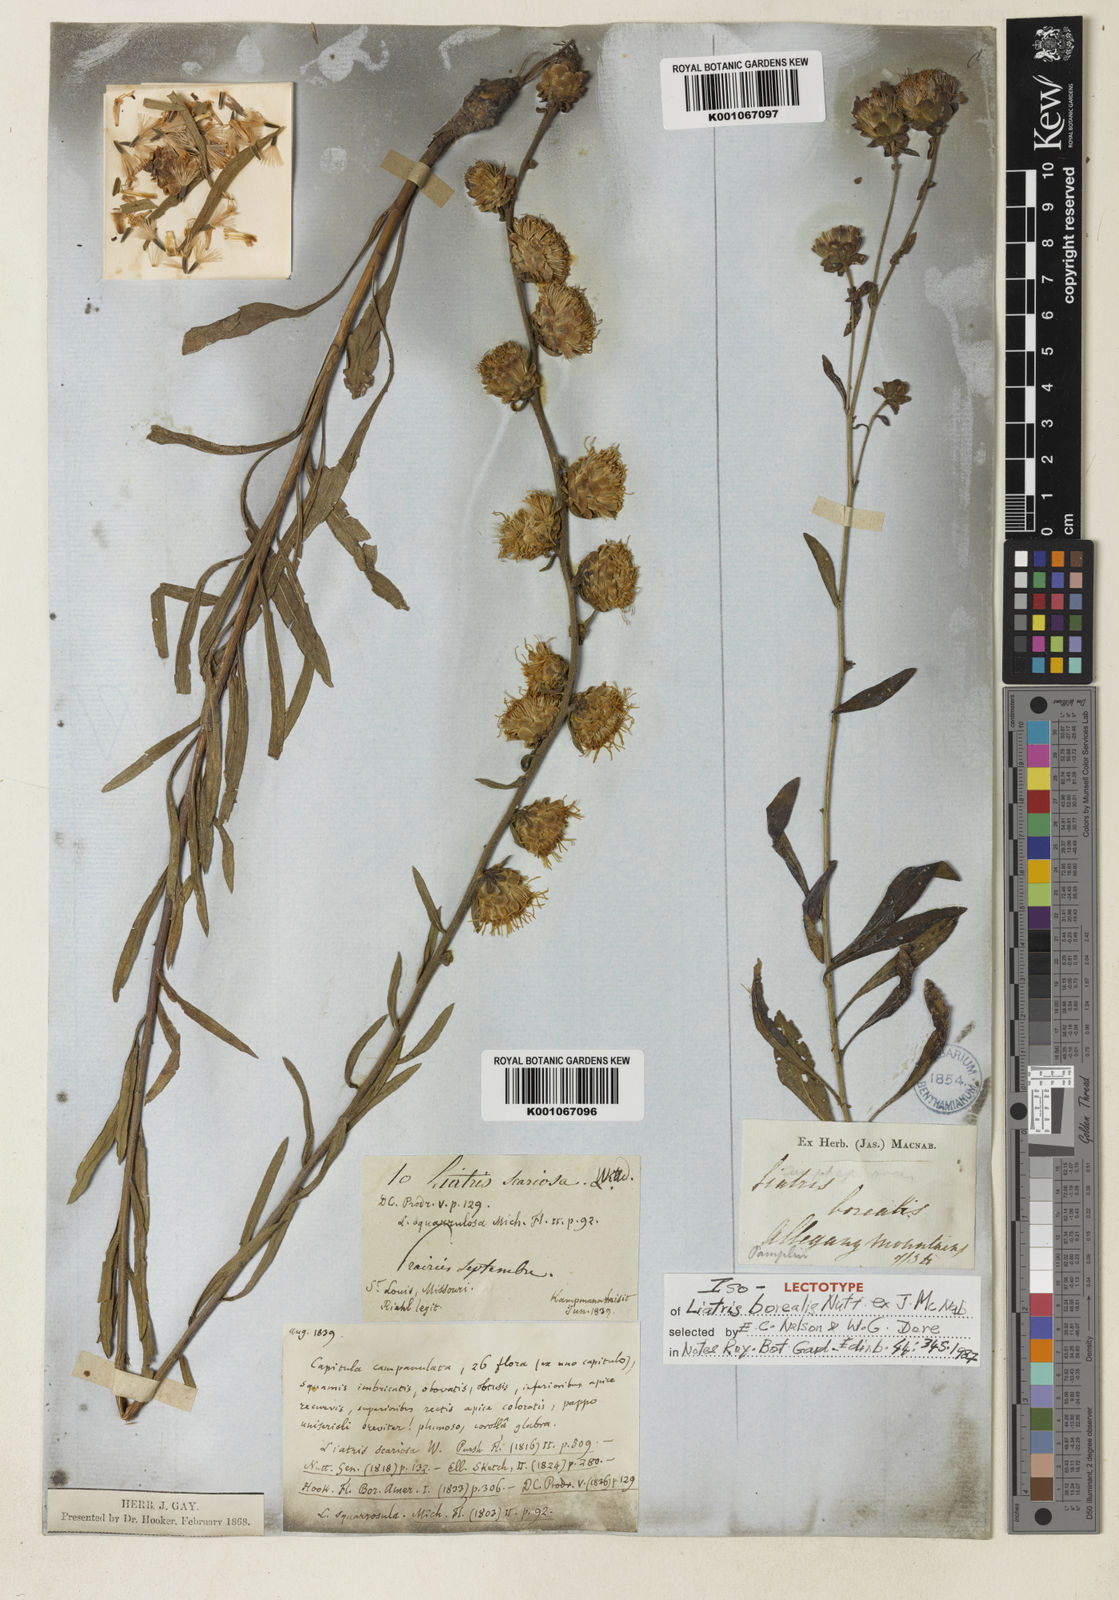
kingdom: Plantae
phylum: Tracheophyta
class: Magnoliopsida
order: Asterales
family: Asteraceae
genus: Liatris
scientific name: Liatris scariosa
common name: Northern gayfeather
